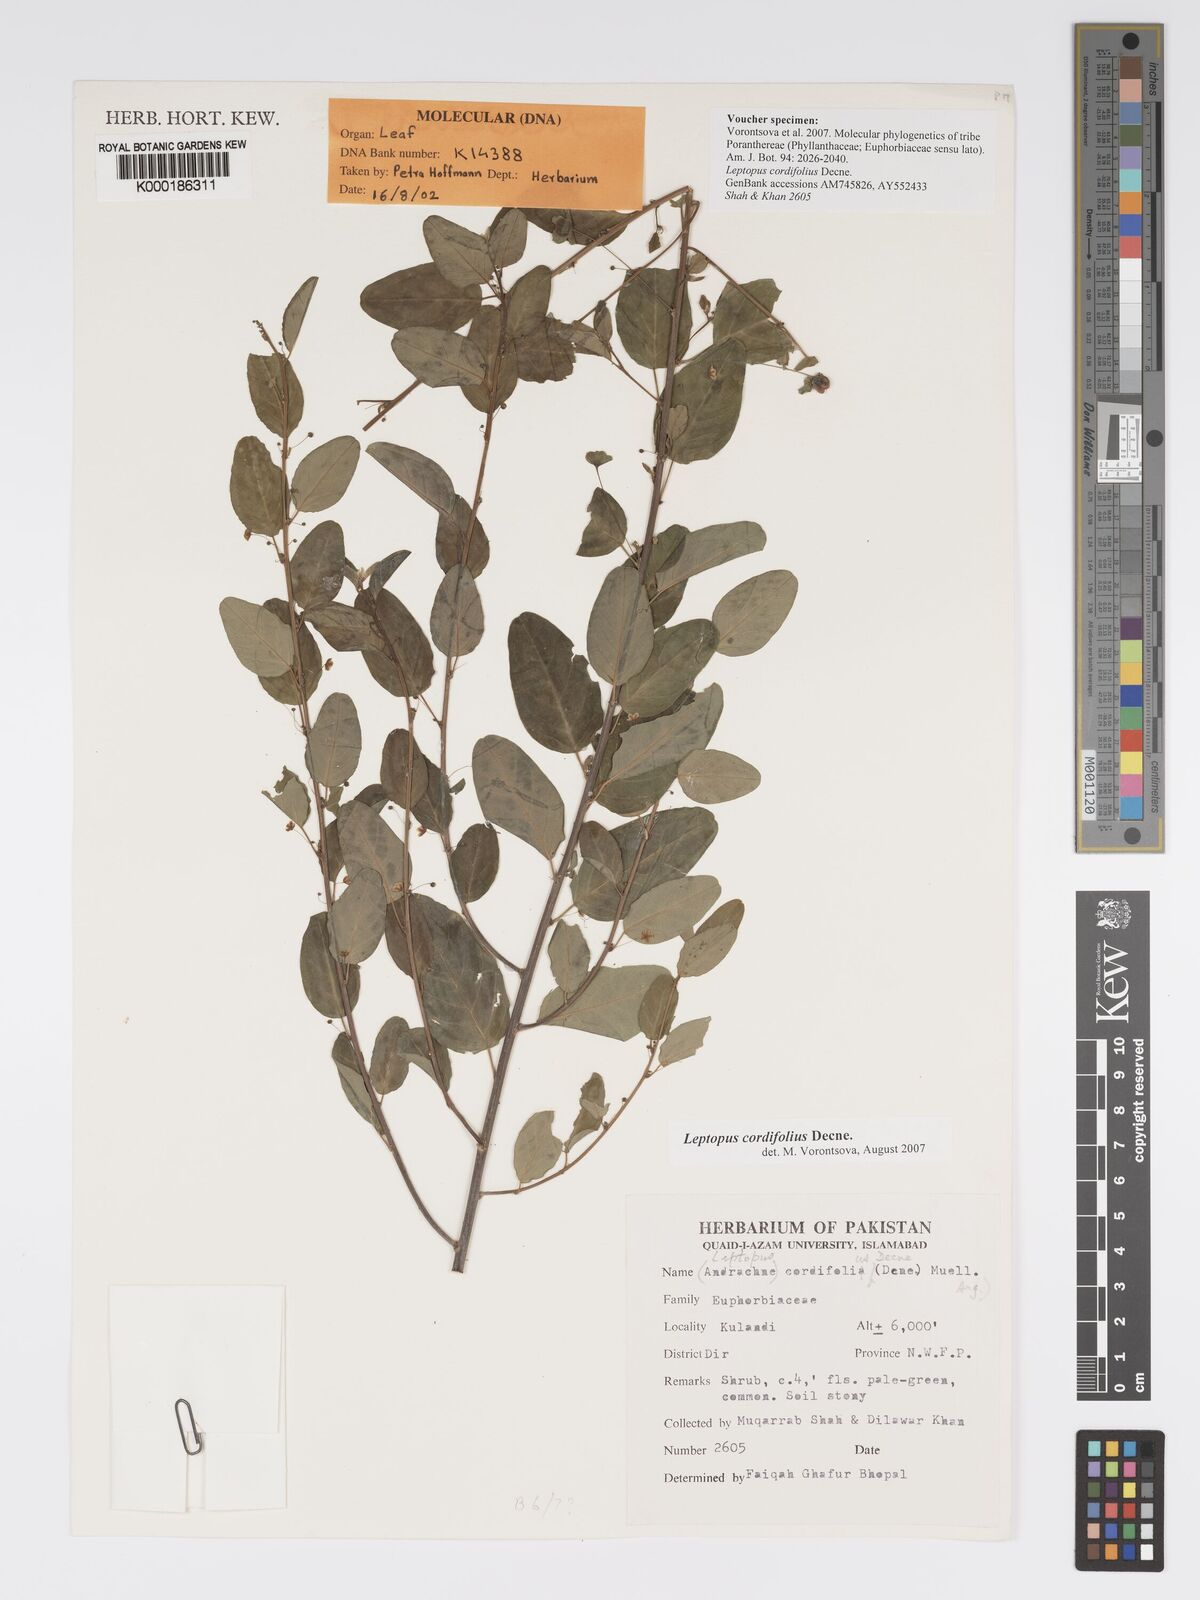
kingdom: Plantae
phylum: Tracheophyta
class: Magnoliopsida
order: Malpighiales
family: Phyllanthaceae
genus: Leptopus
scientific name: Leptopus cordifolius
